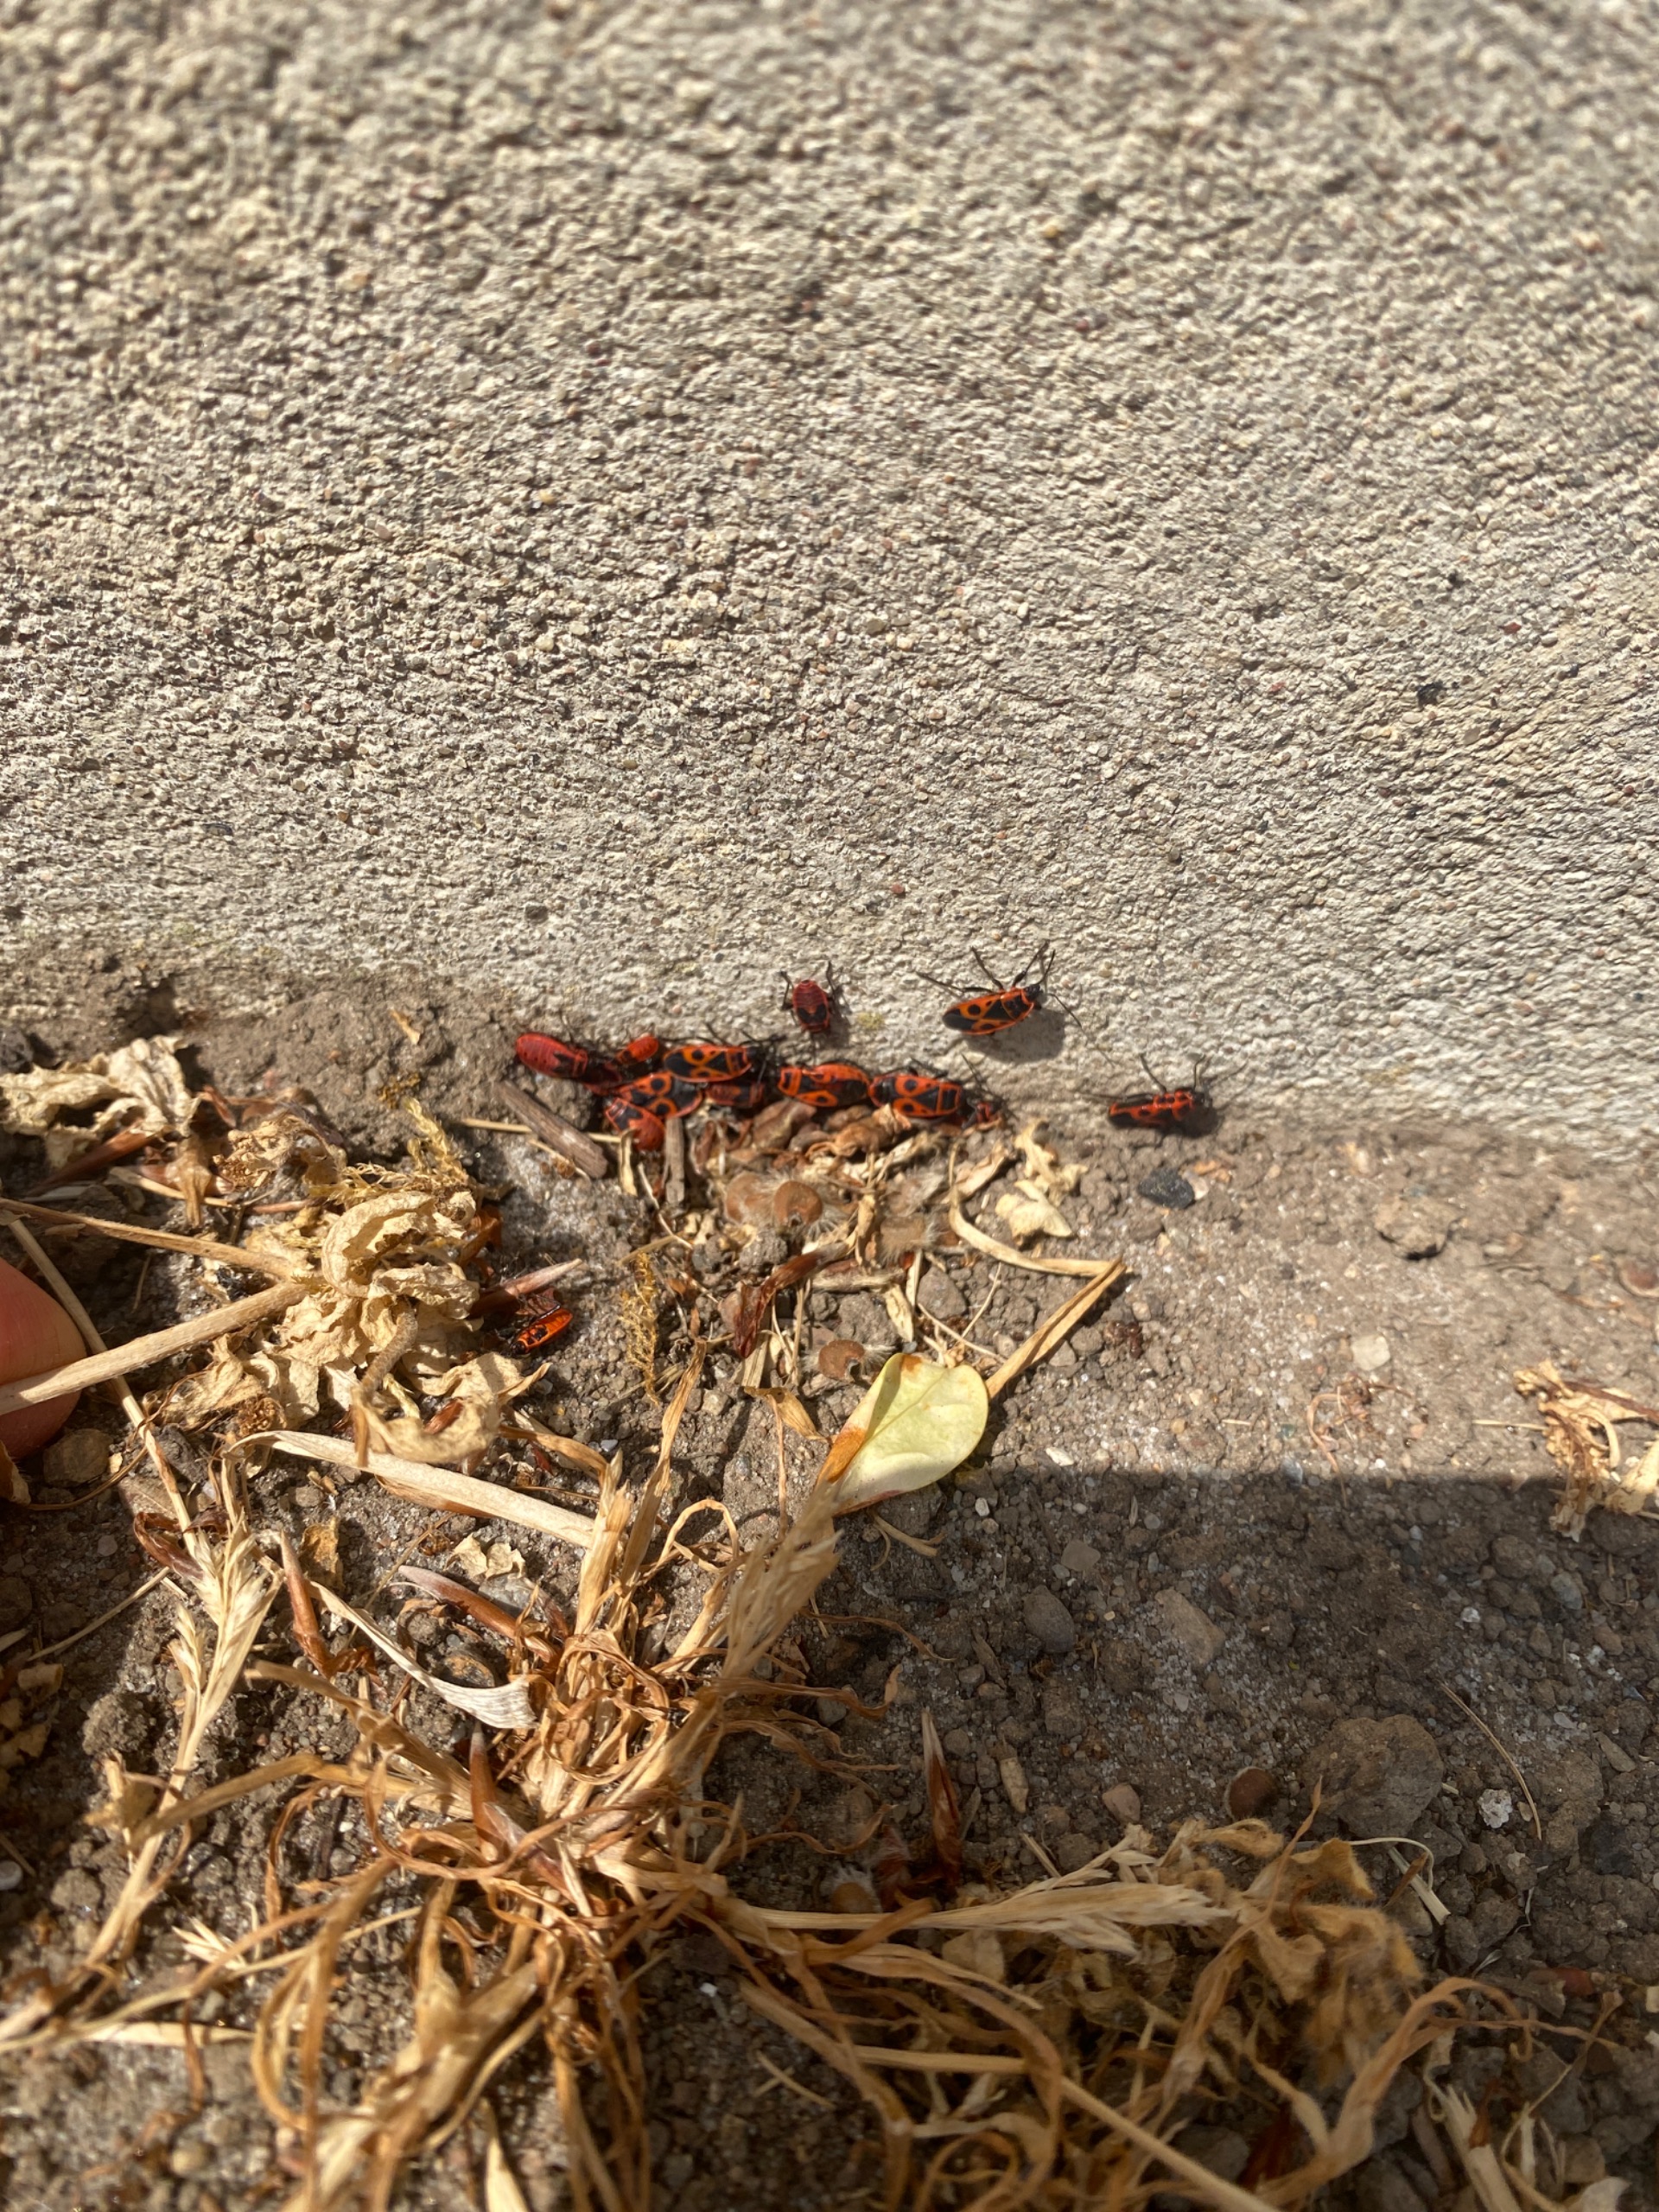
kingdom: Animalia
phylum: Arthropoda
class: Insecta
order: Hemiptera
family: Pyrrhocoridae
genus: Pyrrhocoris
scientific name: Pyrrhocoris apterus
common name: Ildtæge
